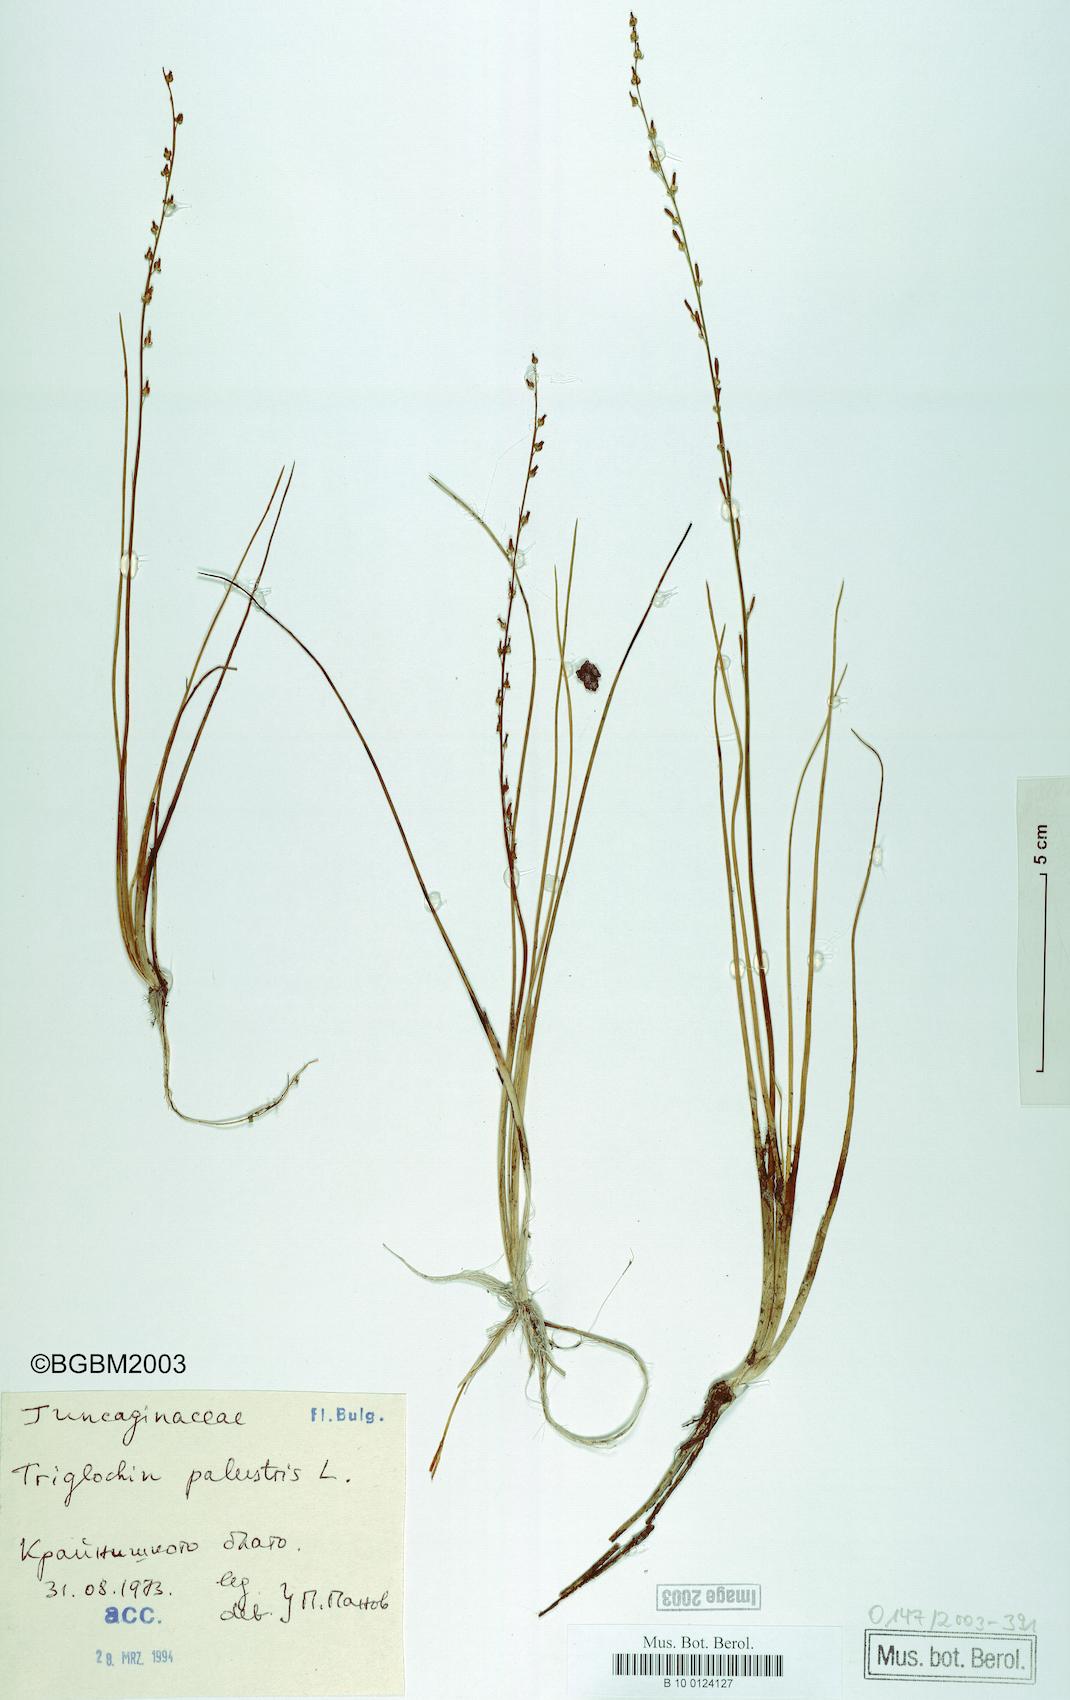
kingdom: Plantae
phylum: Tracheophyta
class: Liliopsida
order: Alismatales
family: Juncaginaceae
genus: Triglochin
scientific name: Triglochin palustris
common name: Marsh arrowgrass
